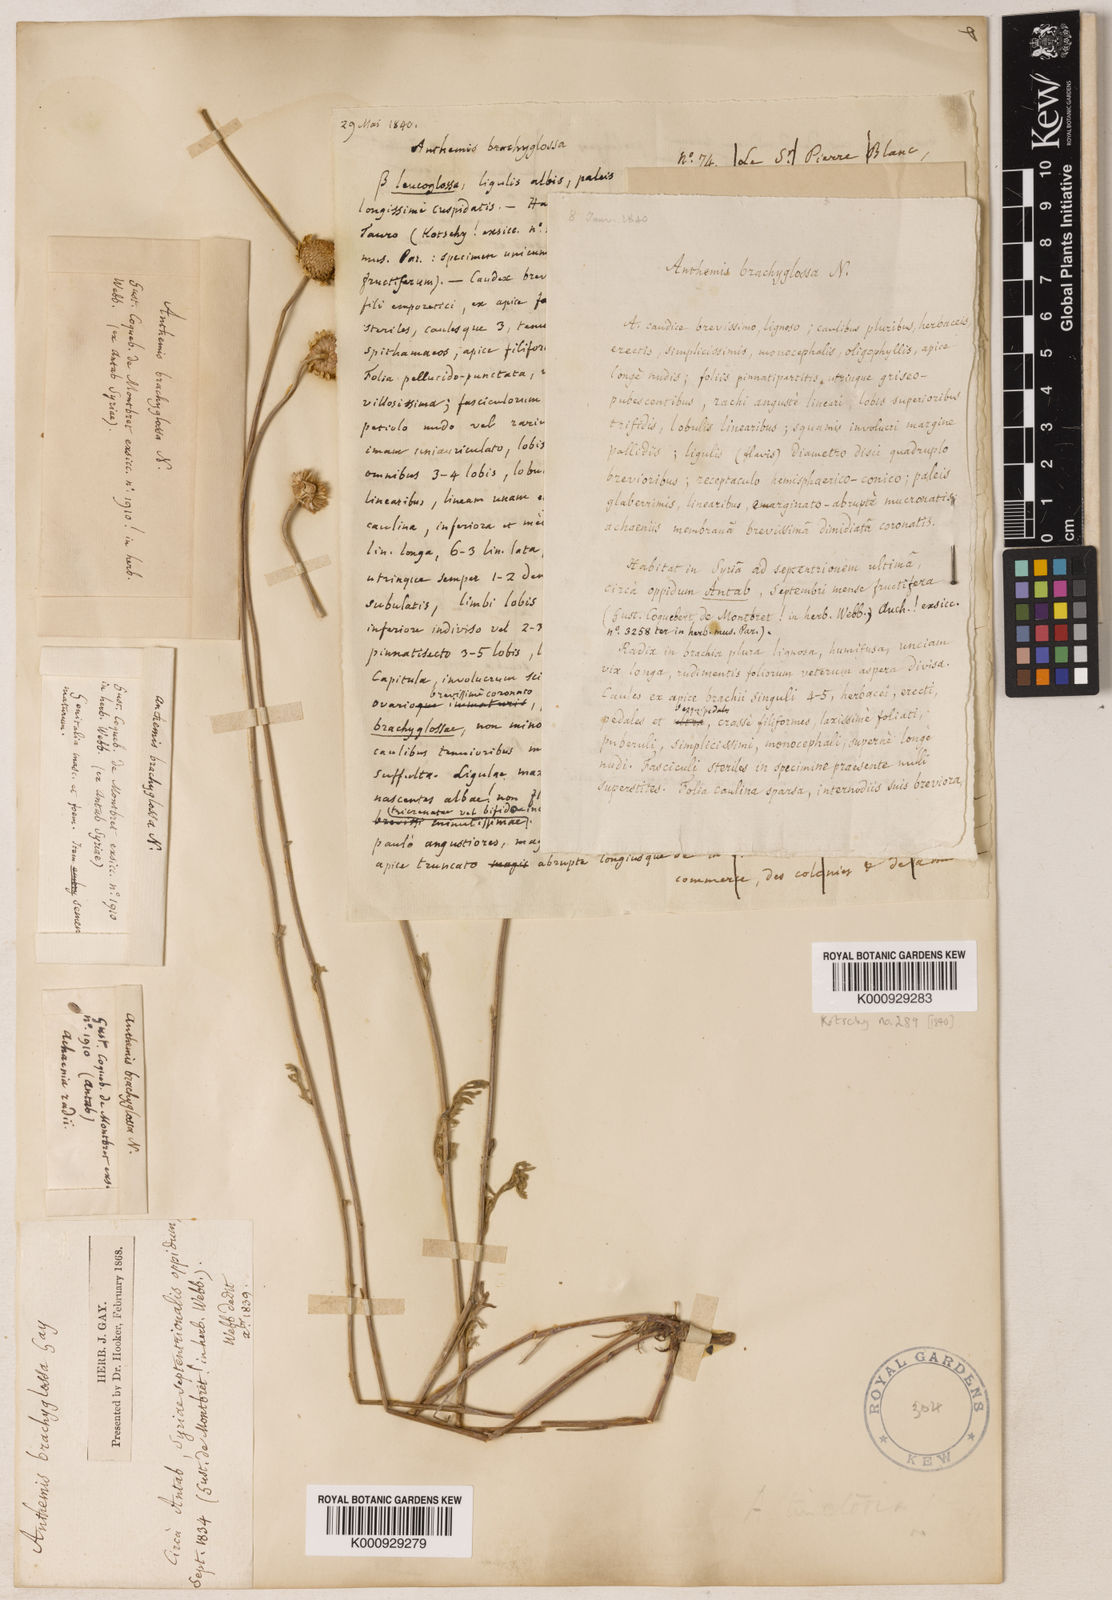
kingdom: Plantae
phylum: Tracheophyta
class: Magnoliopsida
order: Asterales
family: Asteraceae
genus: Anthemis
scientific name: Anthemis kotschyana
